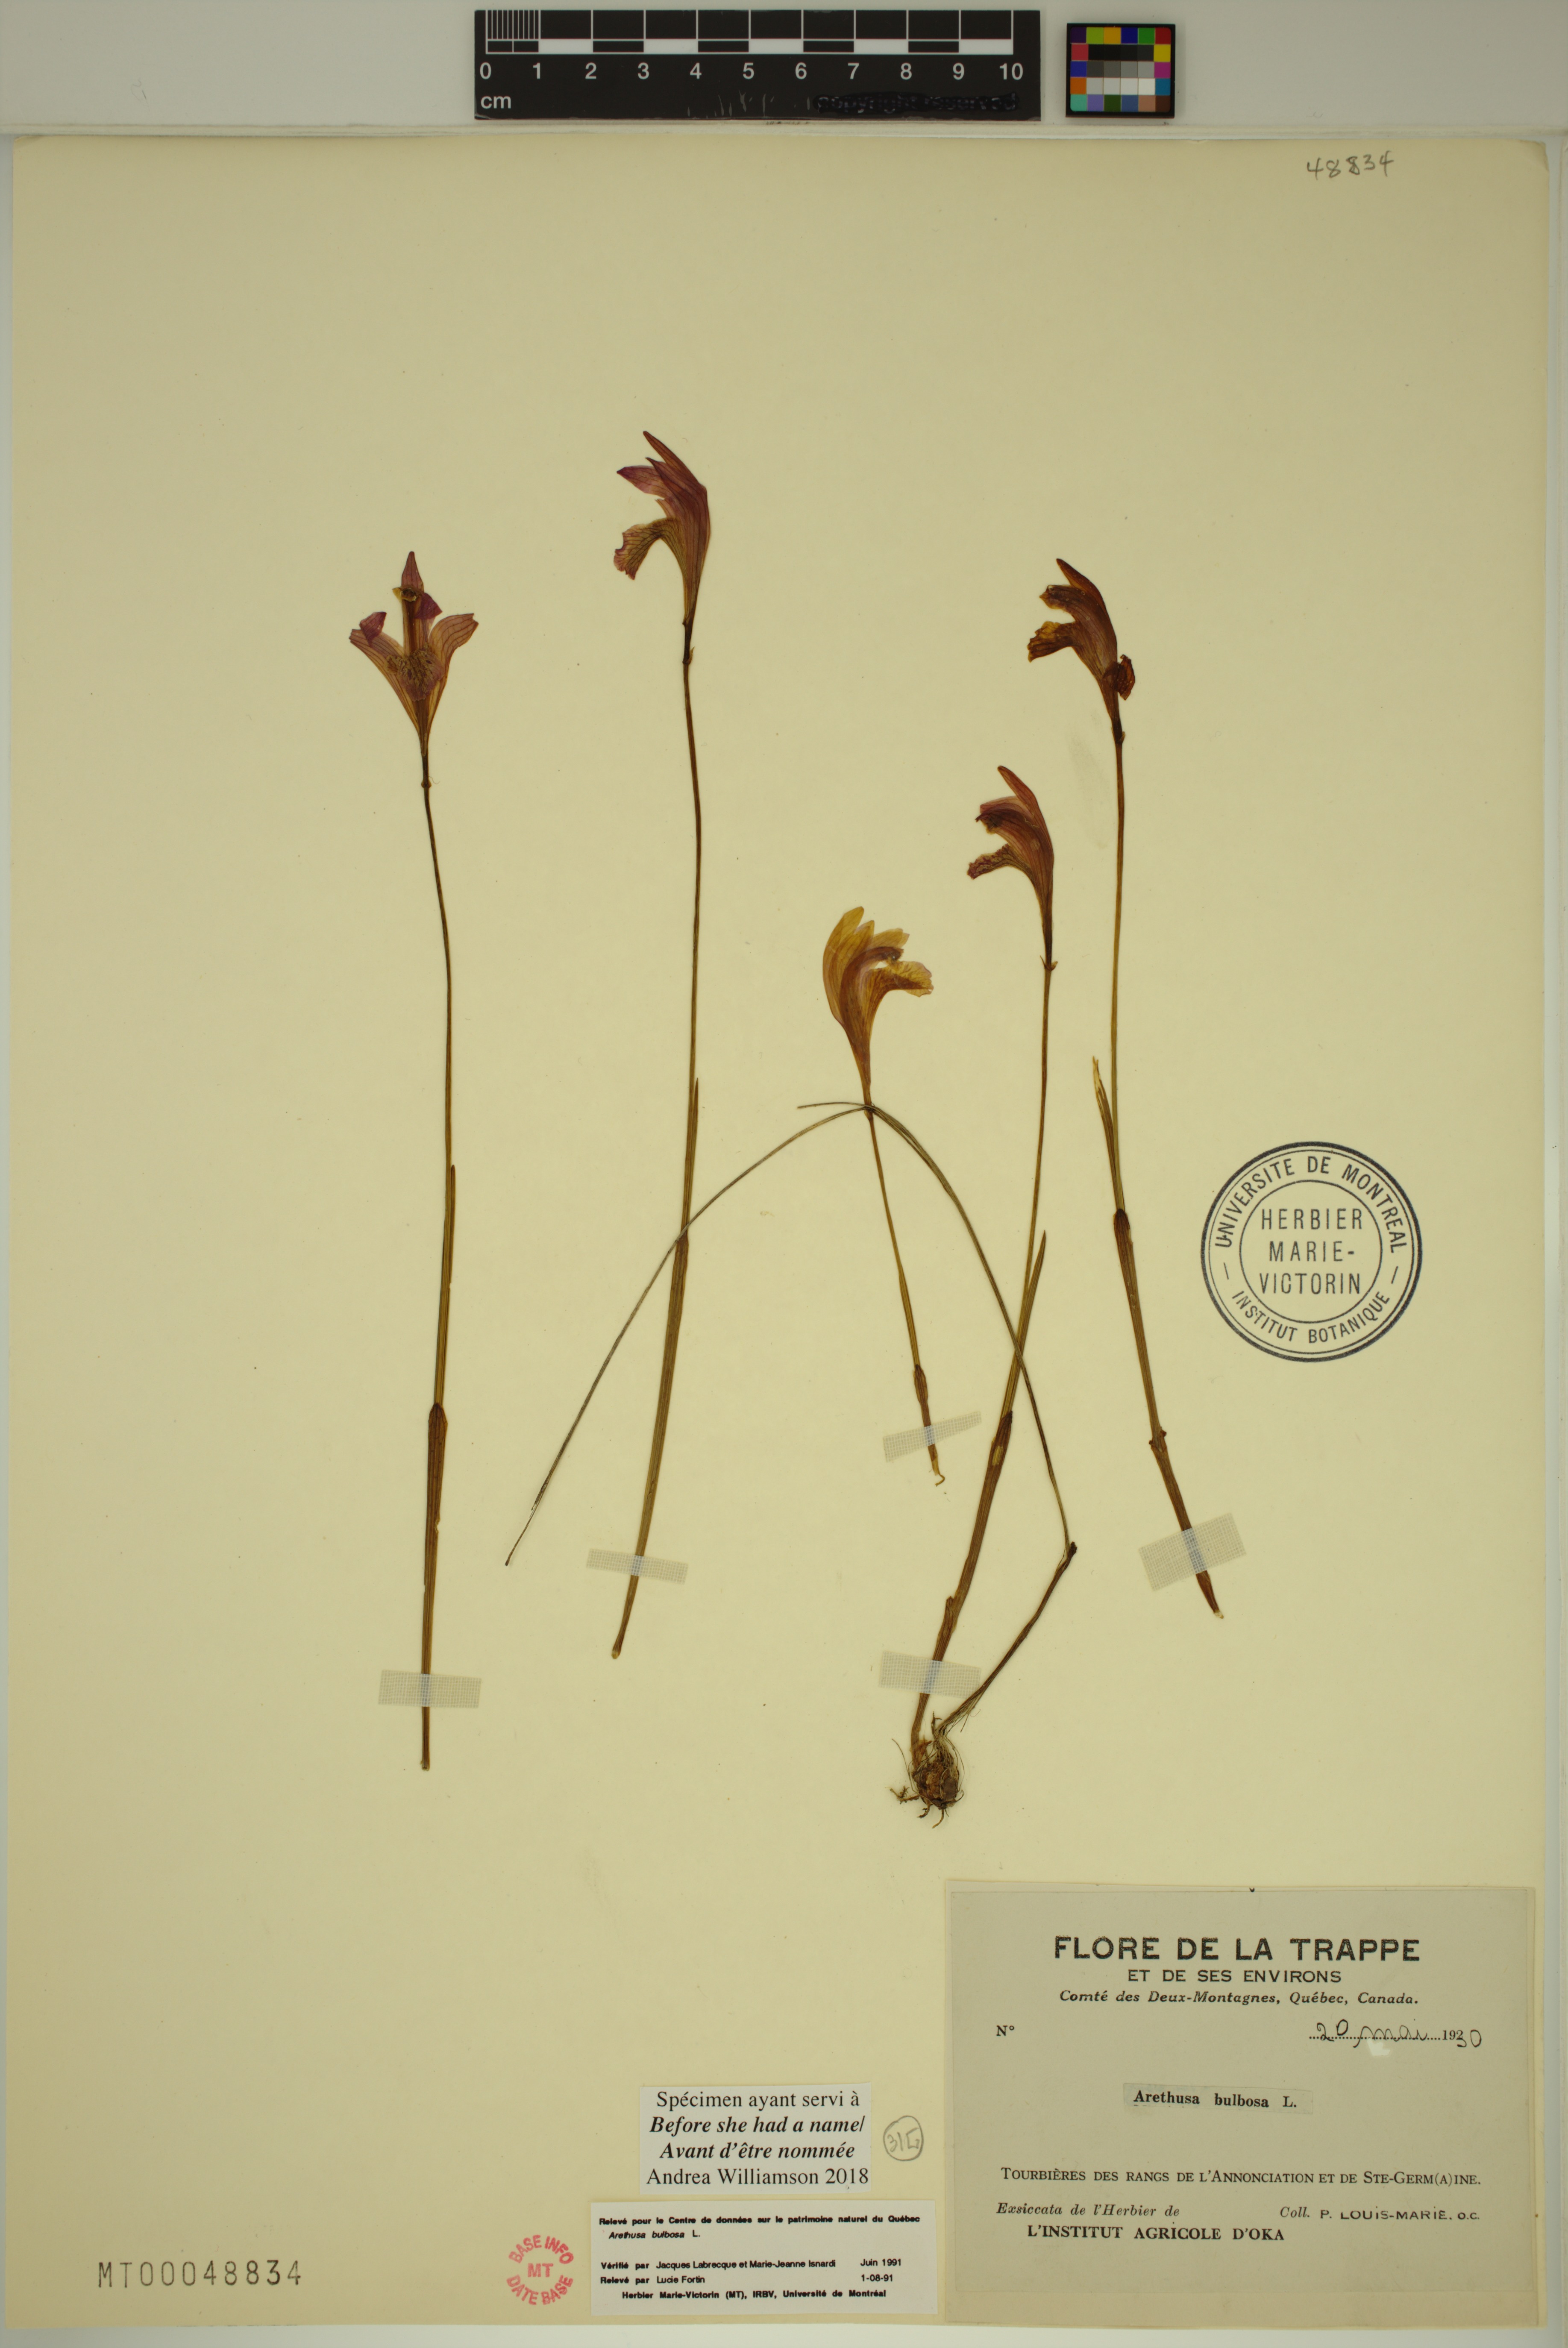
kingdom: Plantae
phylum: Tracheophyta
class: Liliopsida
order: Asparagales
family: Orchidaceae
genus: Arethusa
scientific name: Arethusa bulbosa
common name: Arethusa
